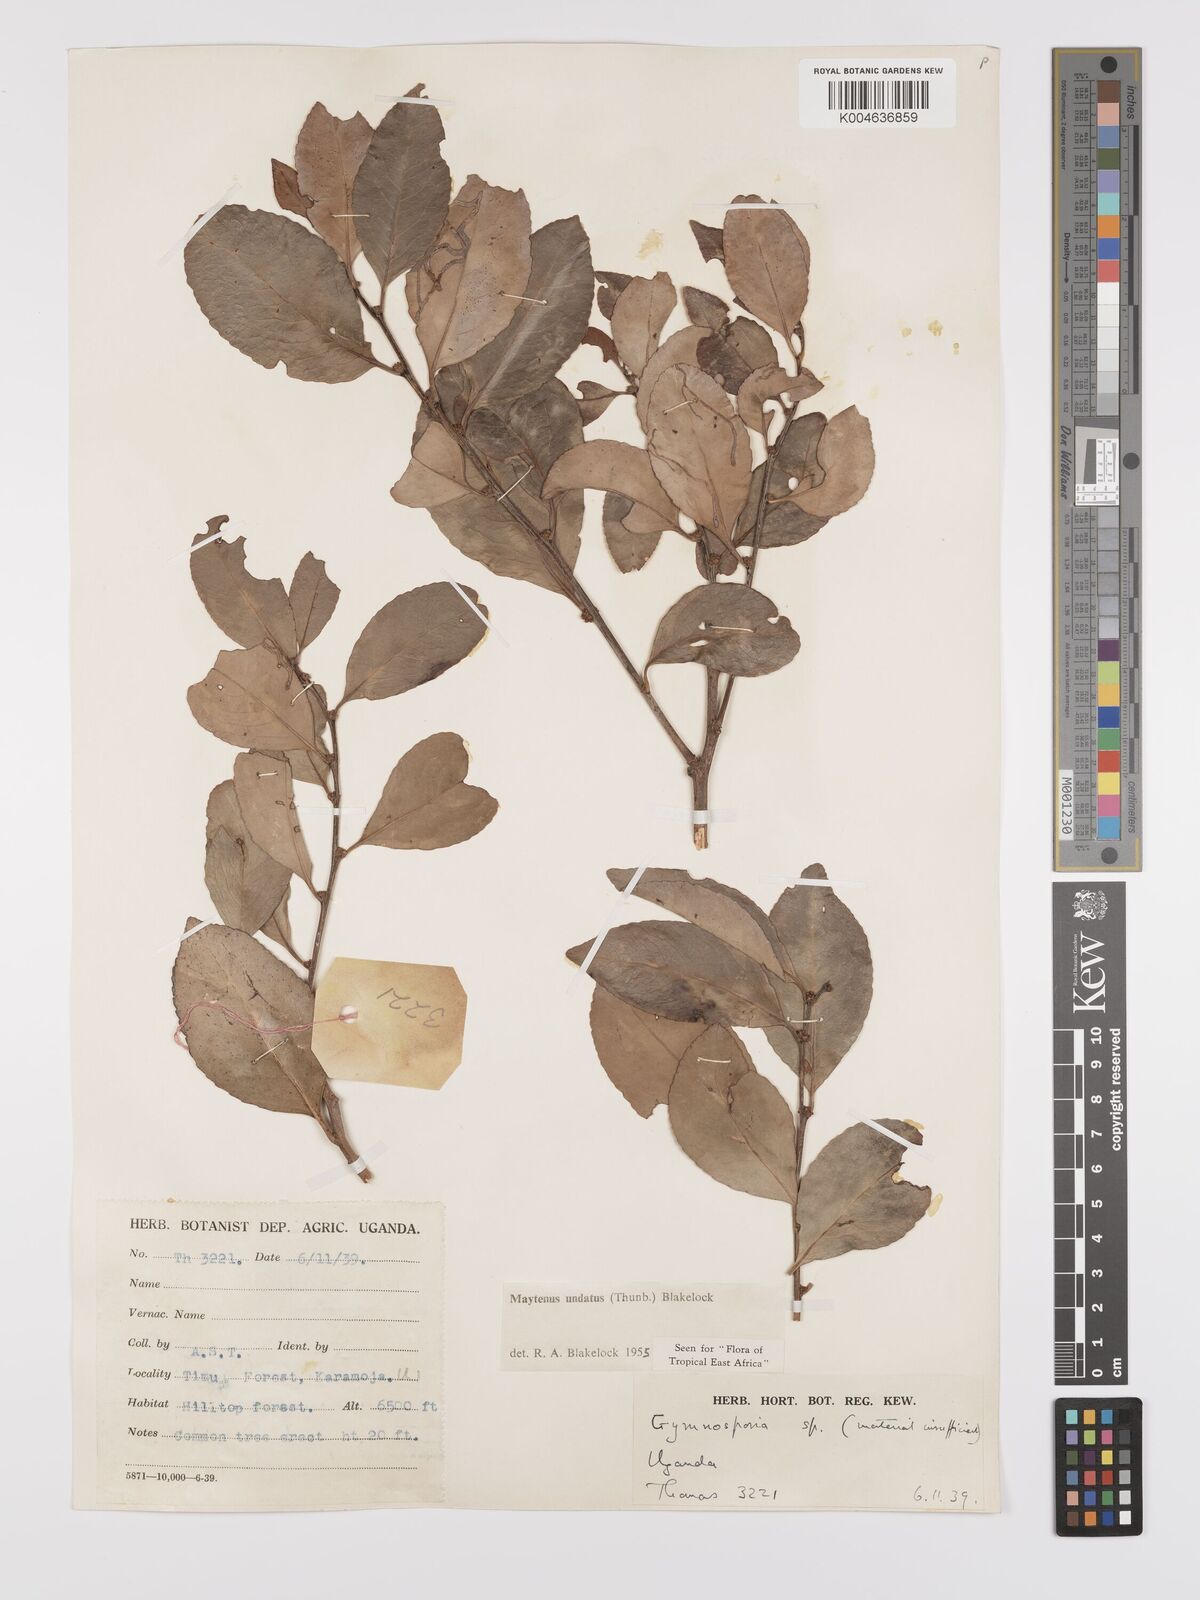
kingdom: Plantae
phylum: Tracheophyta
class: Magnoliopsida
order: Celastrales
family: Celastraceae
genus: Gymnosporia
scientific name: Gymnosporia undata
